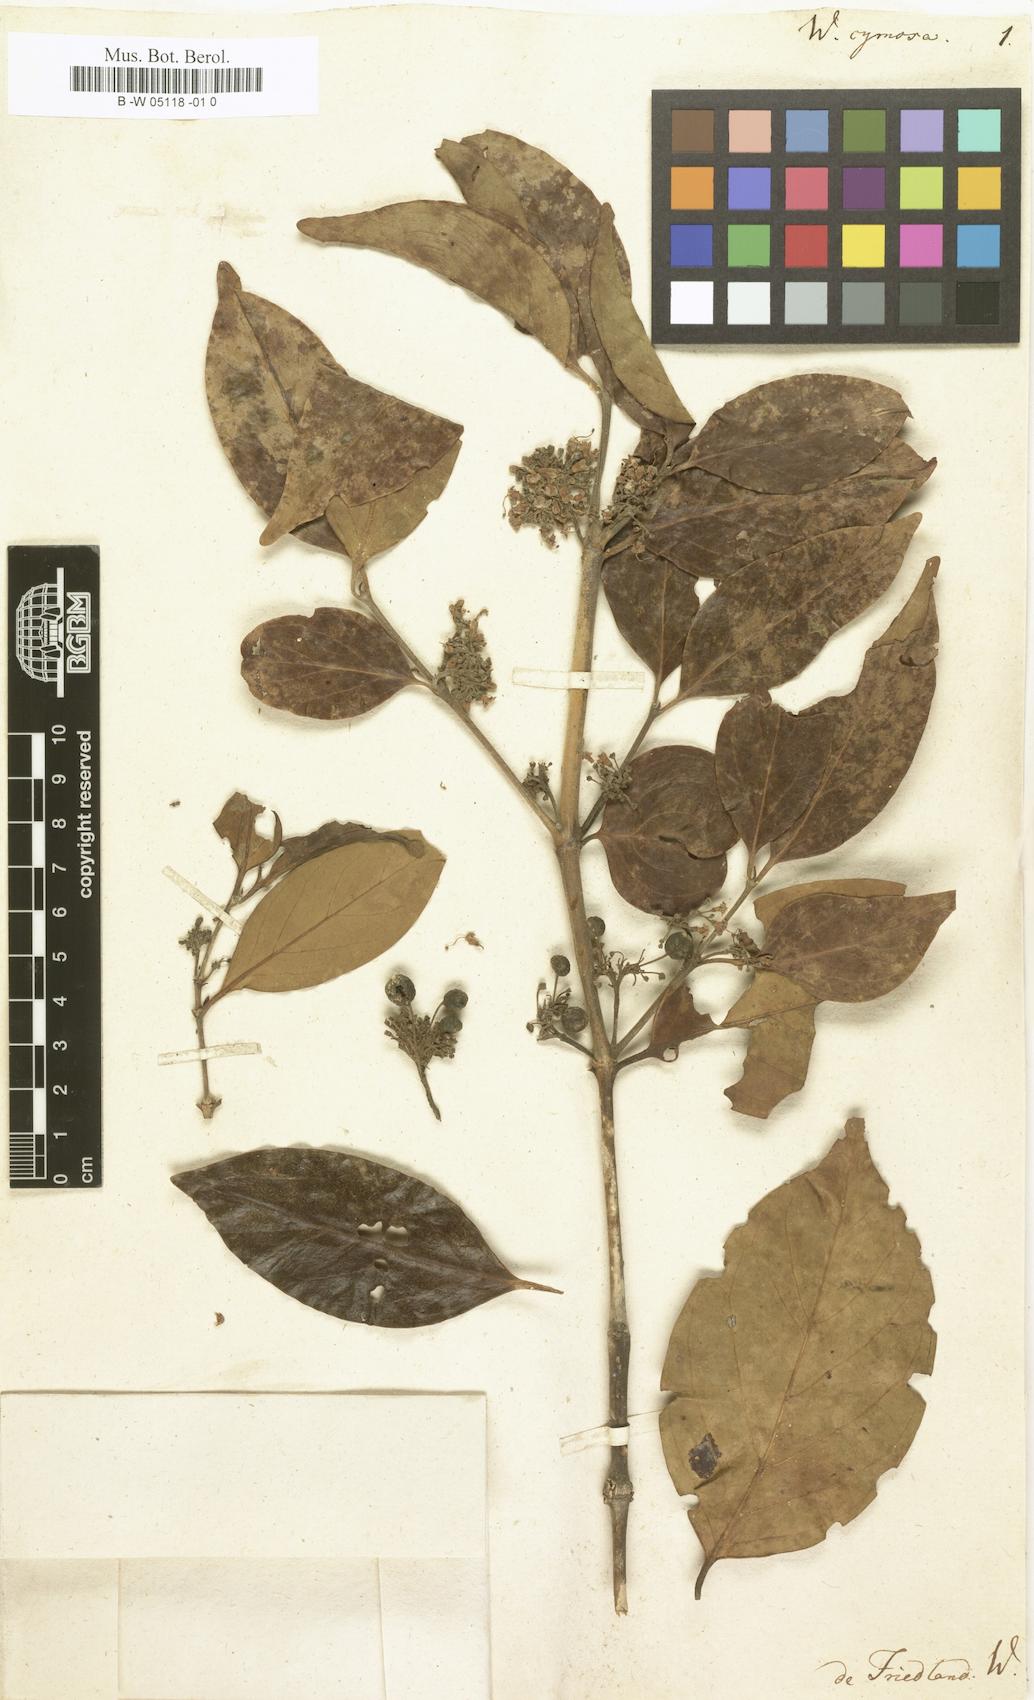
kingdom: Plantae
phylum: Tracheophyta
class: Magnoliopsida
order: Gentianales
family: Rubiaceae
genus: Psydrax
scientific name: Psydrax dicoccos
